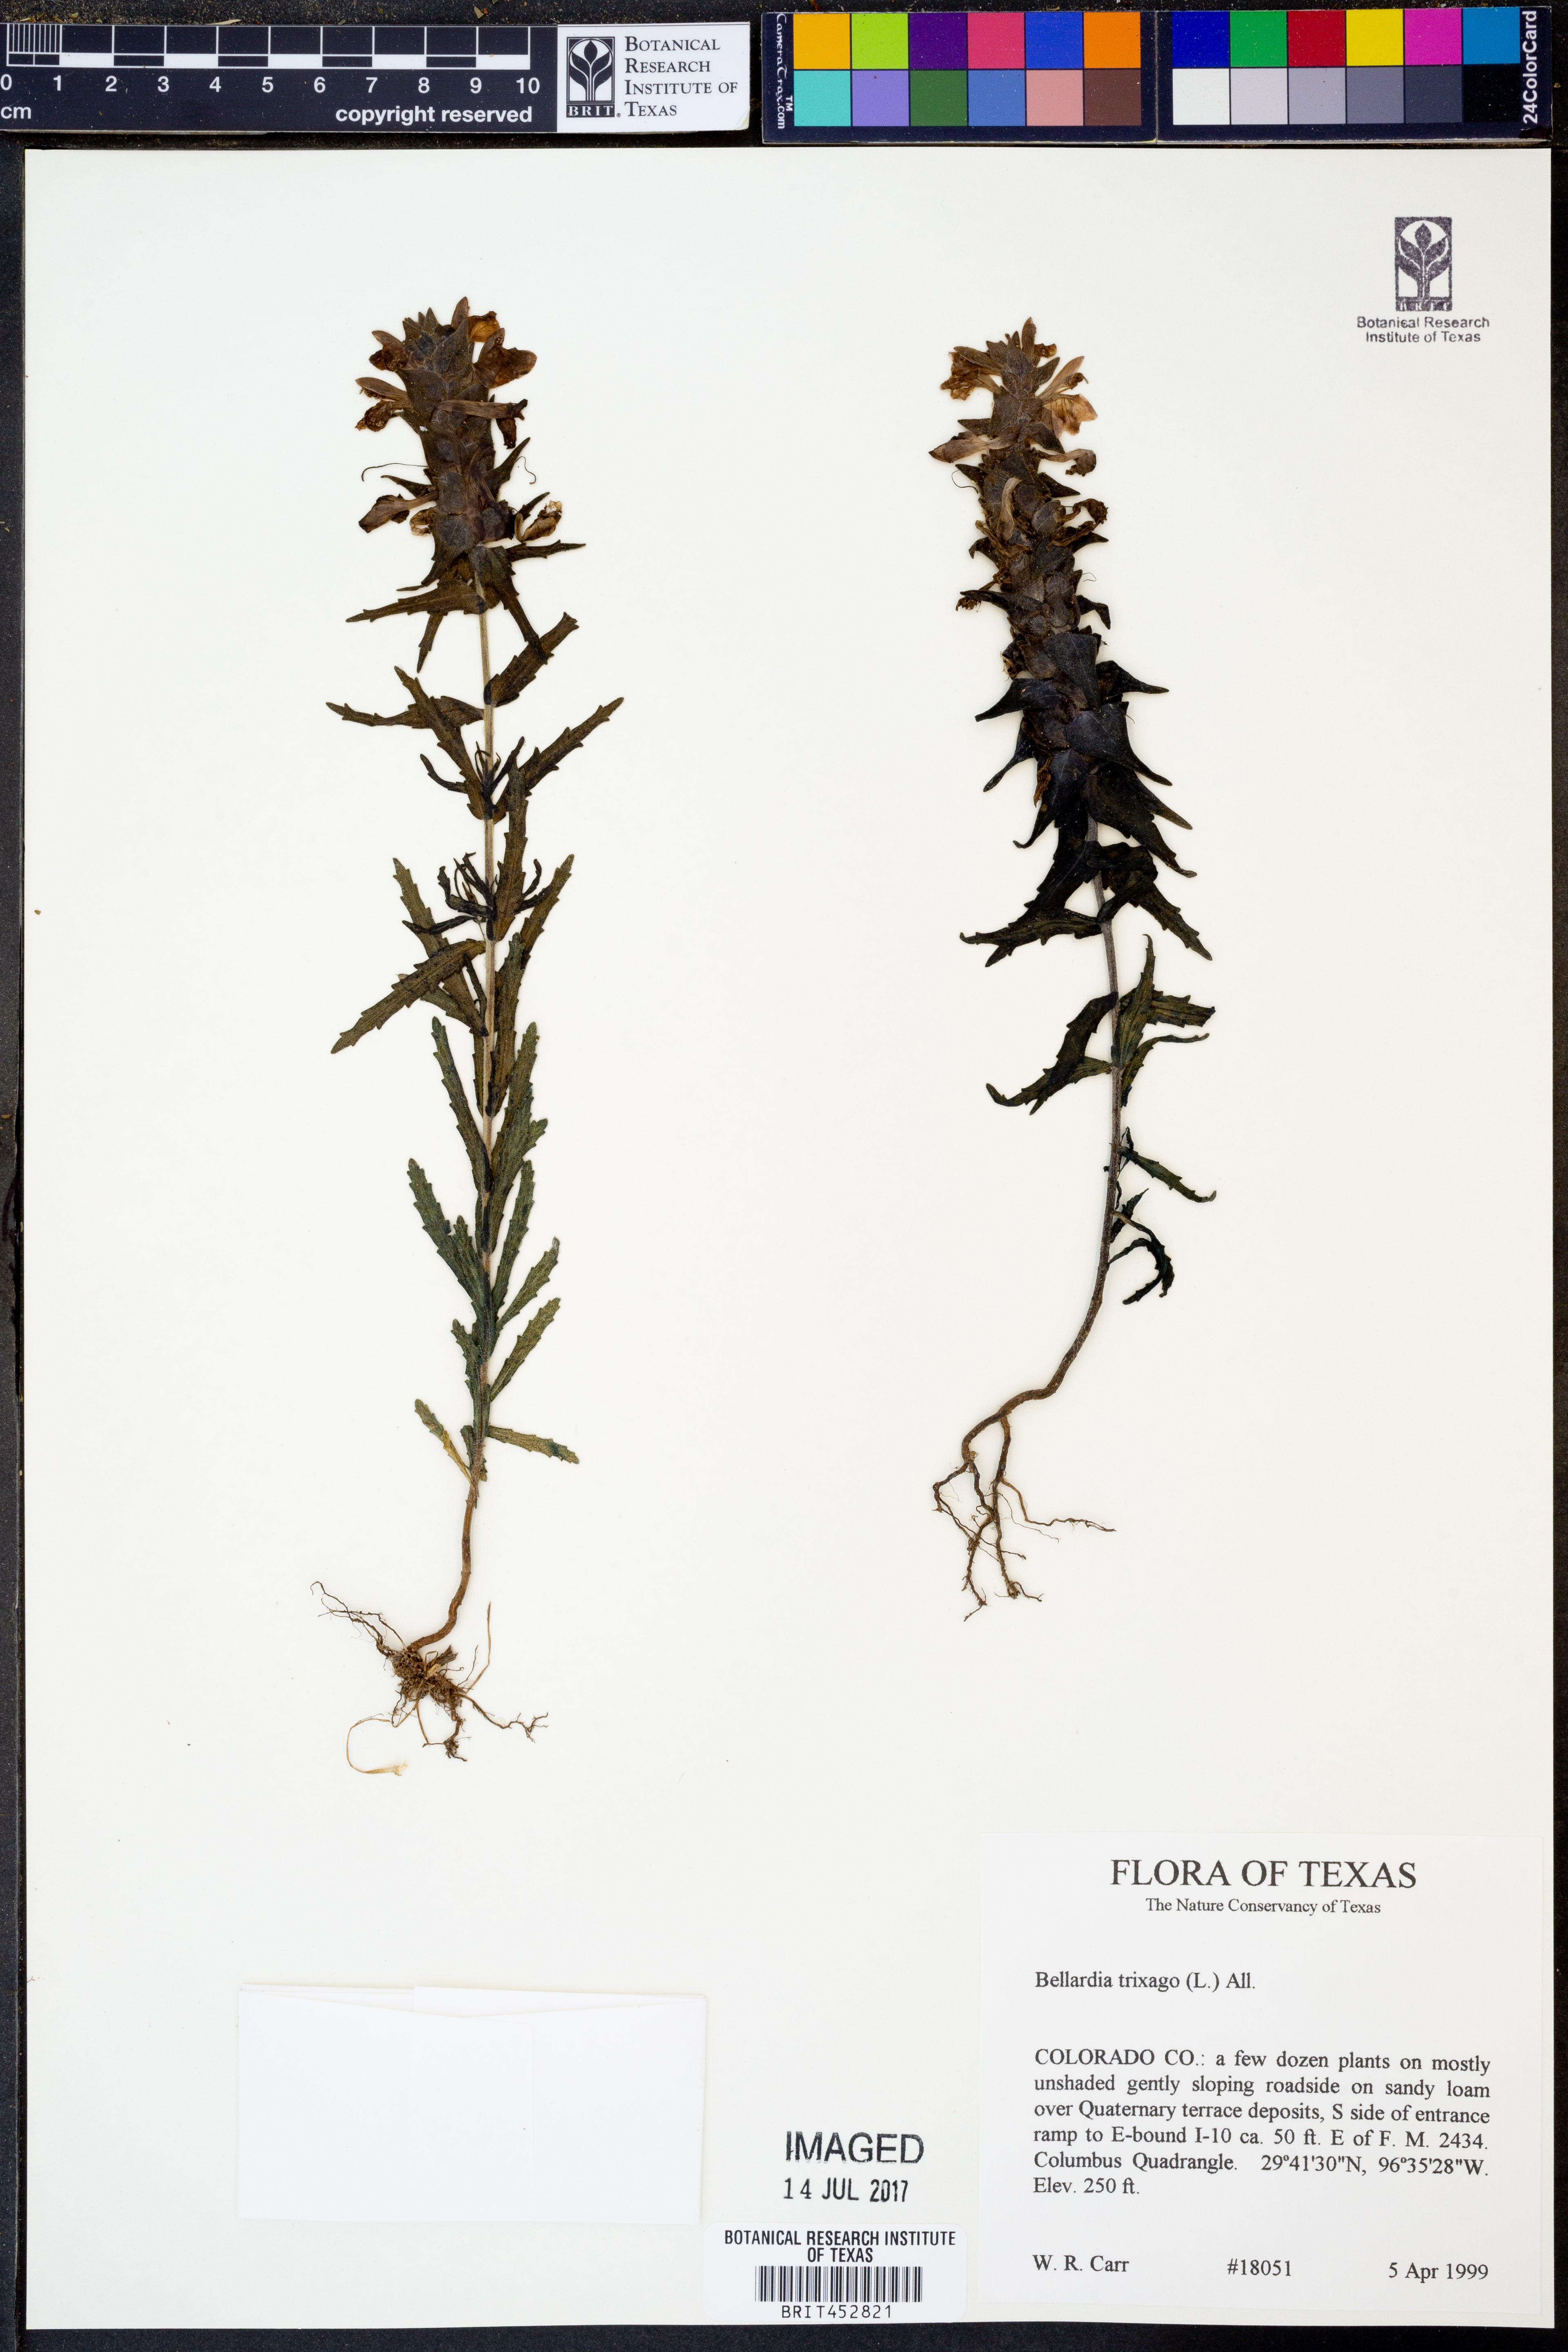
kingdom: Plantae
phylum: Tracheophyta
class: Magnoliopsida
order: Lamiales
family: Orobanchaceae
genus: Bellardia
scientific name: Bellardia trixago
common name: Mediterranean lineseed
